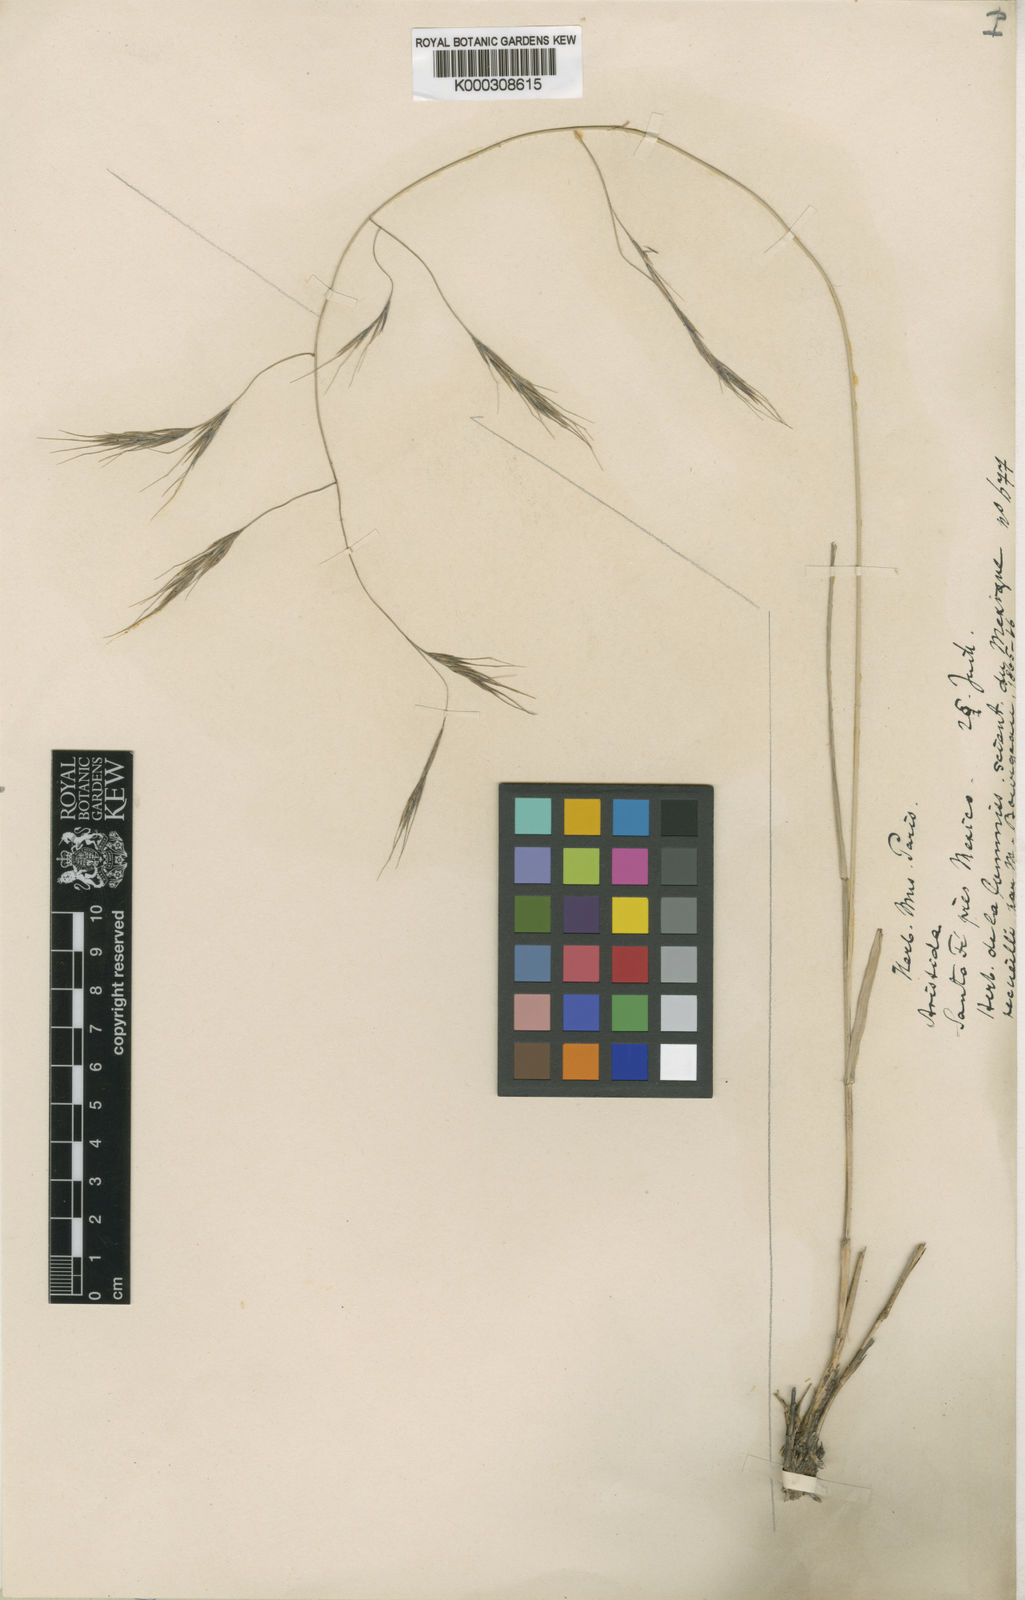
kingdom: Plantae
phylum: Tracheophyta
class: Liliopsida
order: Poales
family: Poaceae
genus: Aristida
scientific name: Aristida schiedeana
